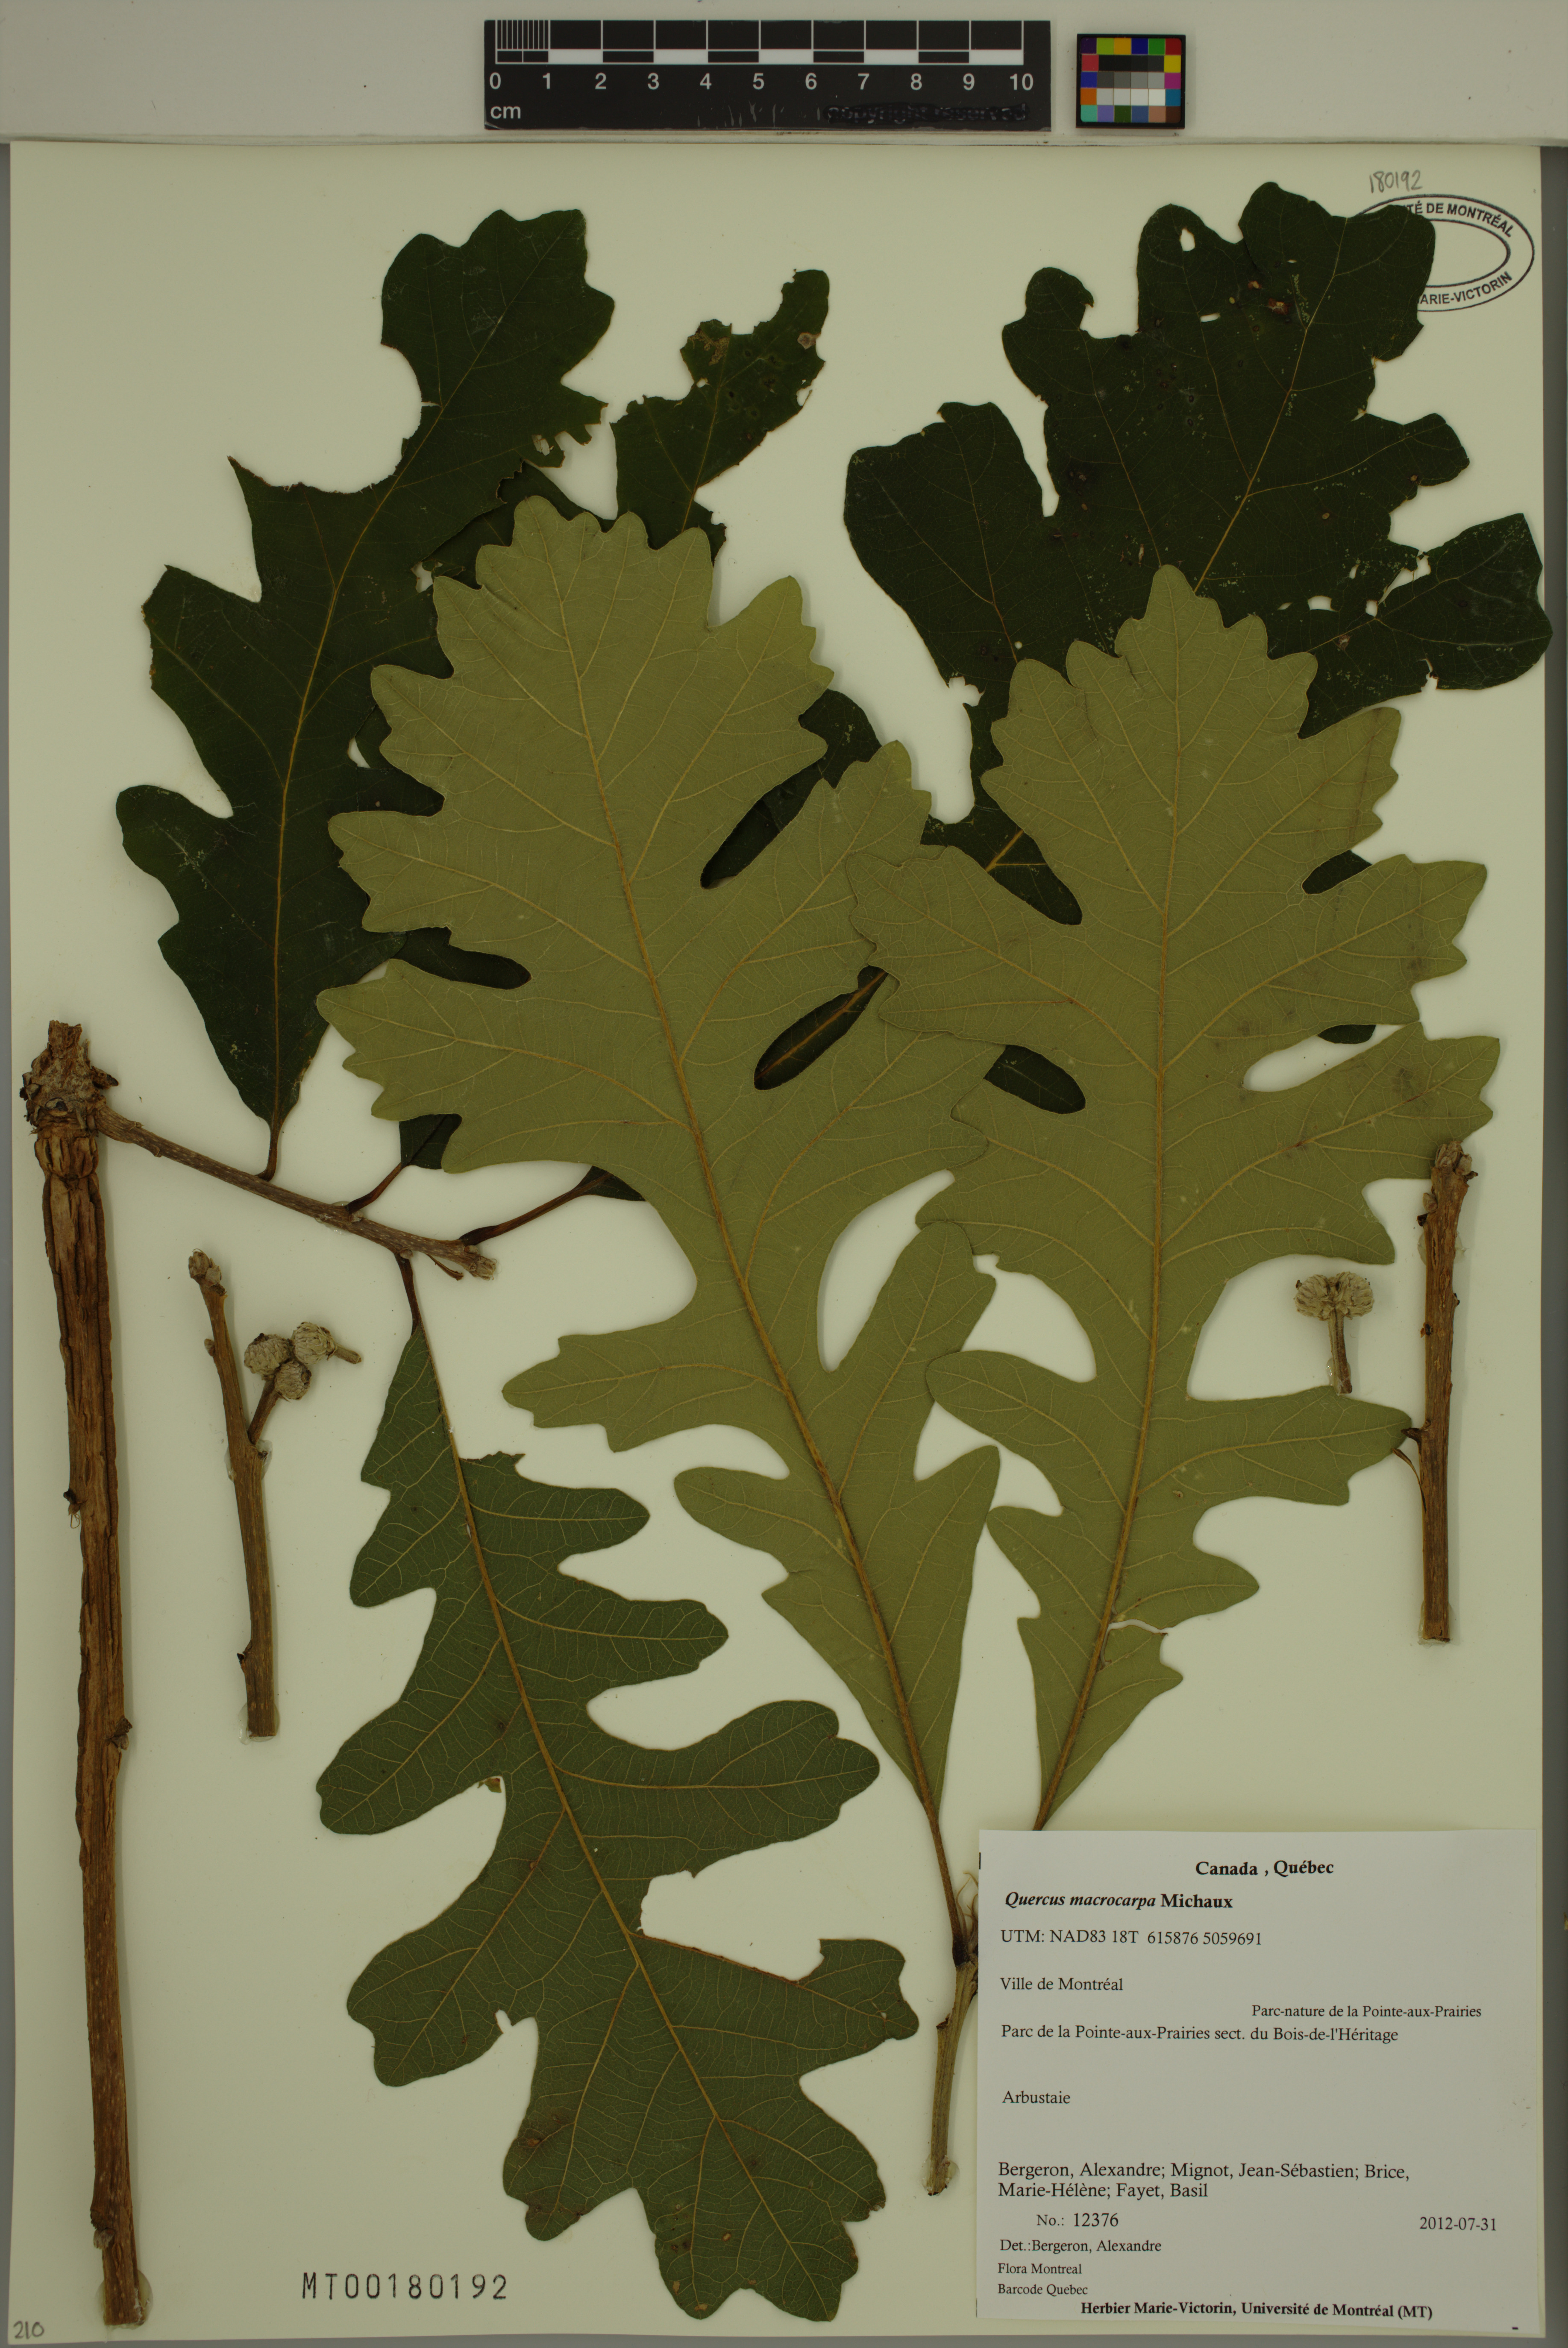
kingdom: Plantae
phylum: Tracheophyta
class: Magnoliopsida
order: Fagales
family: Fagaceae
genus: Quercus
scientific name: Quercus macrocarpa
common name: Bur oak
